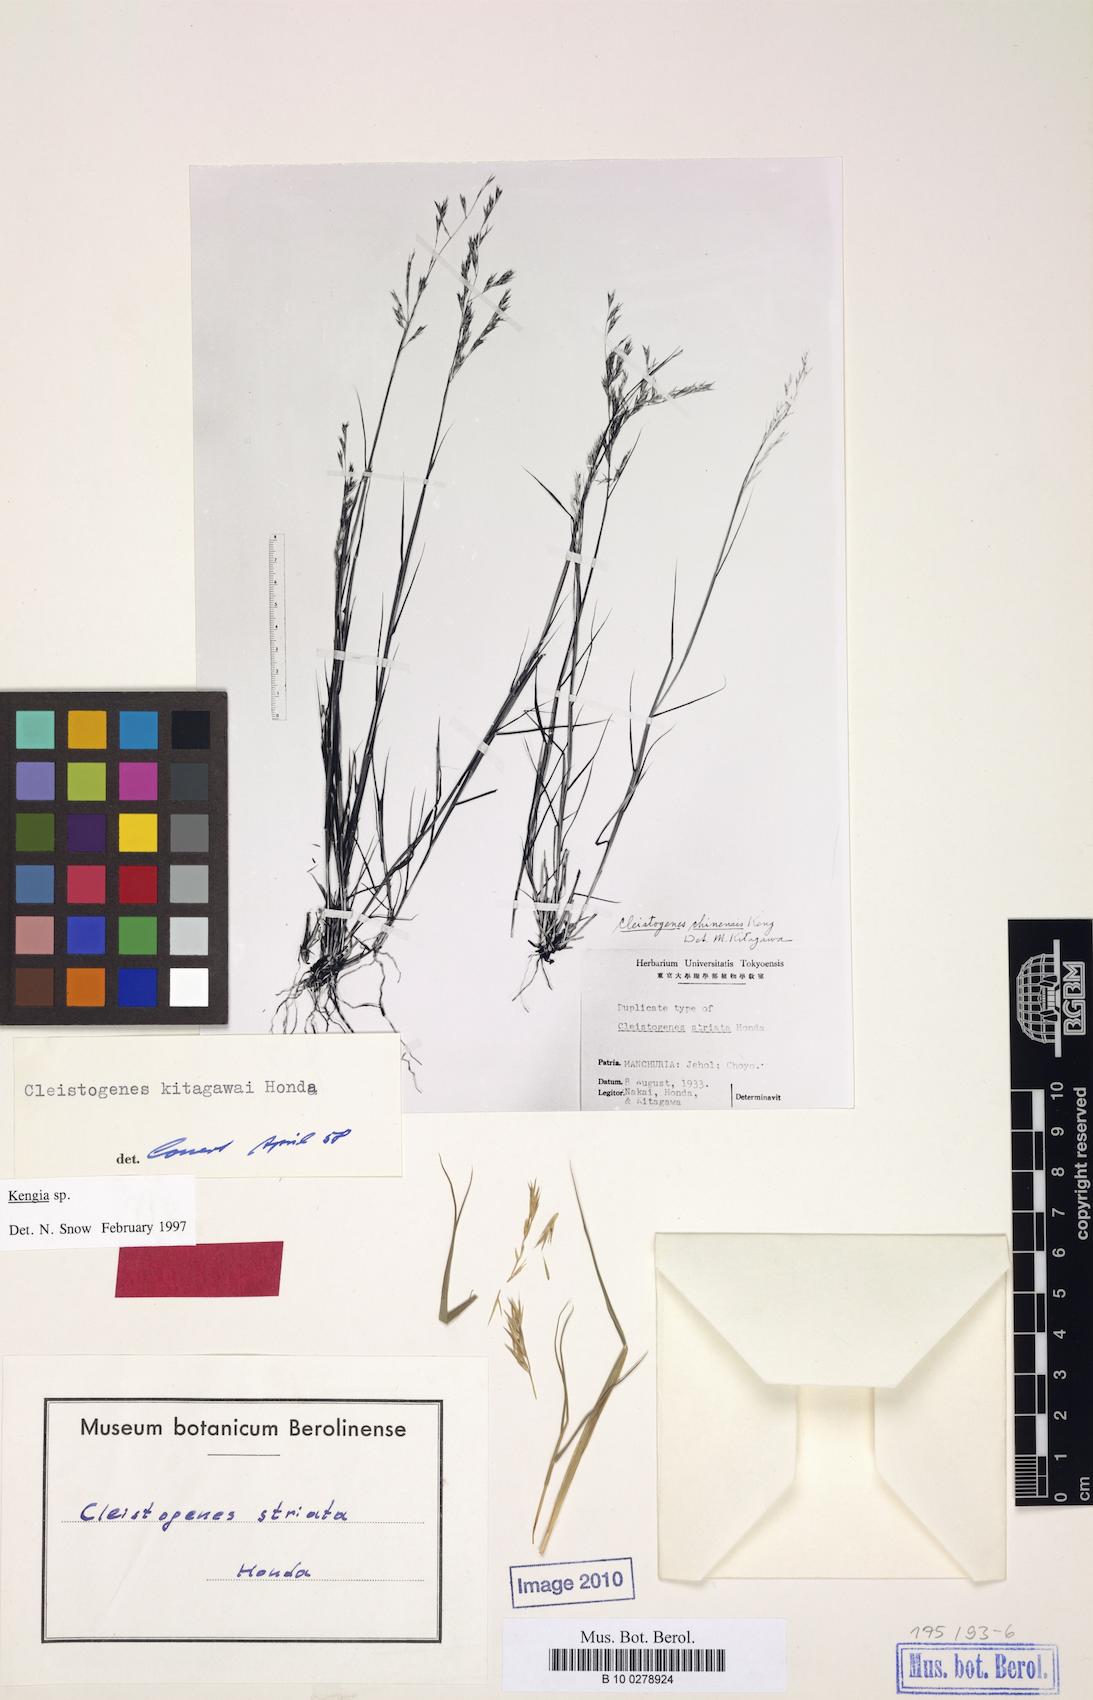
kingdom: Plantae
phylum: Tracheophyta
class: Liliopsida
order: Poales
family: Poaceae
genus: Cleistogenes
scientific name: Cleistogenes kitagawae
